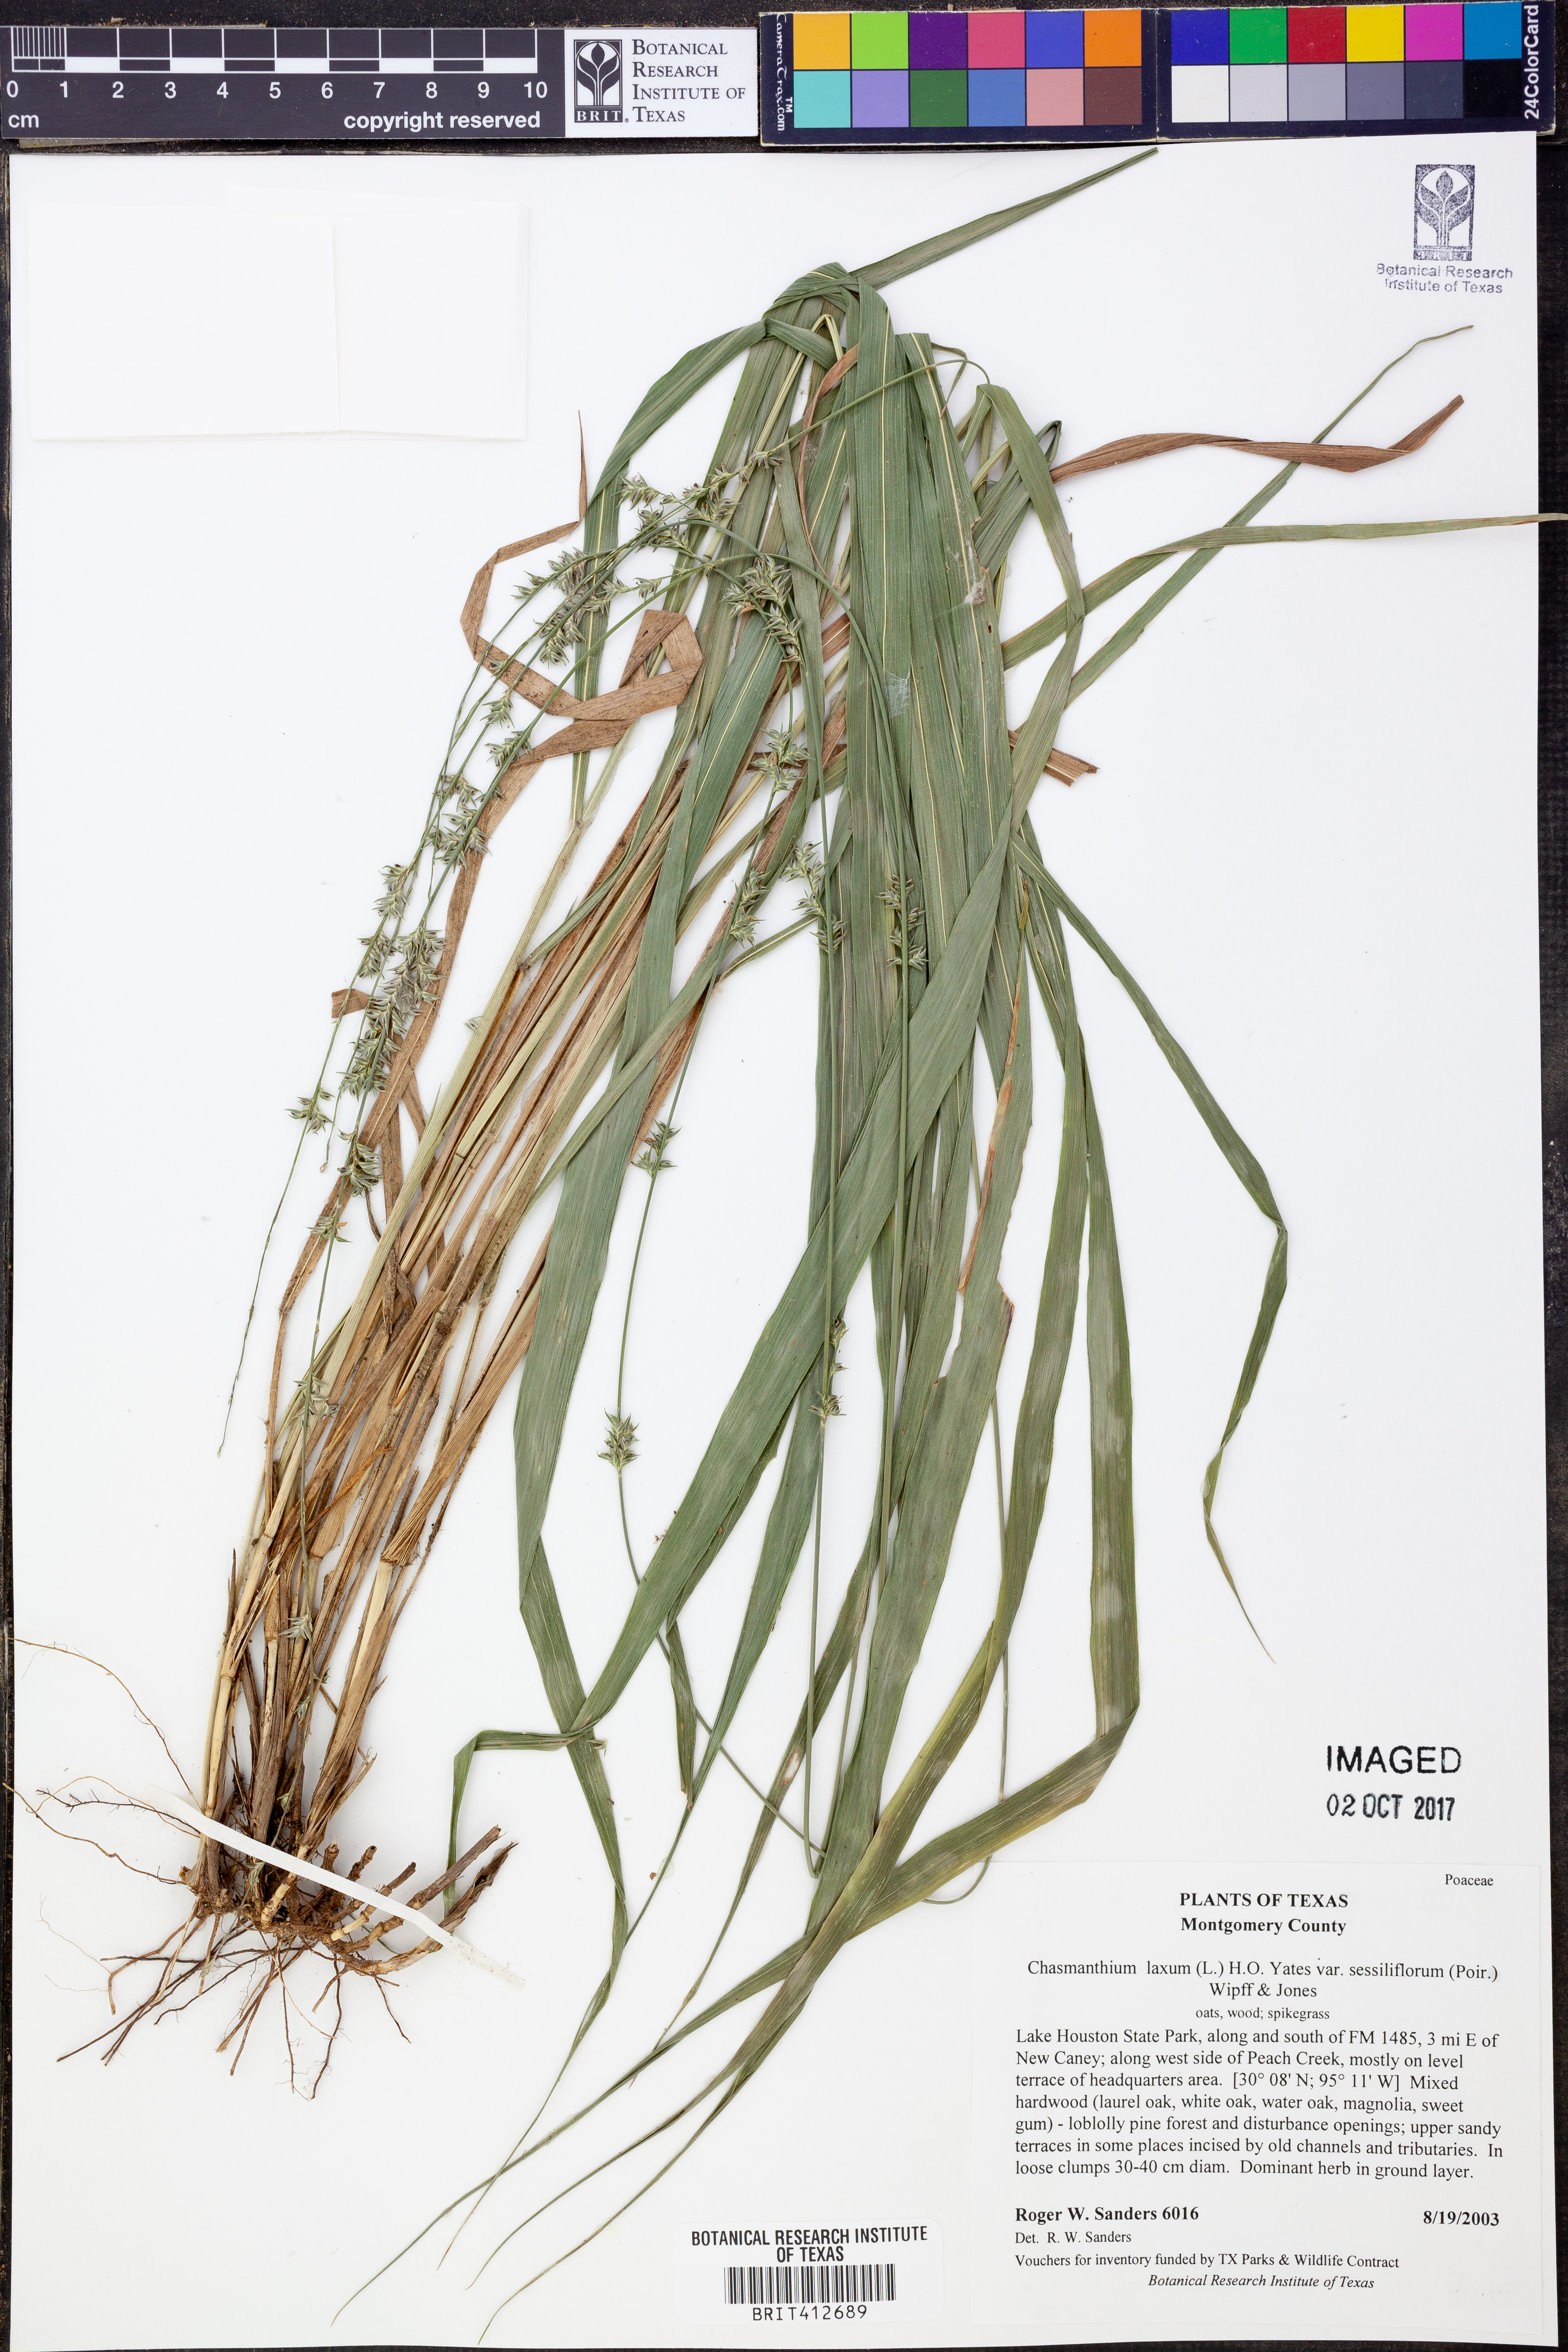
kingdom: Plantae
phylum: Tracheophyta
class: Liliopsida
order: Poales
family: Poaceae
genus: Chasmanthium
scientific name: Chasmanthium laxum
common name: Slender chasmanthium
